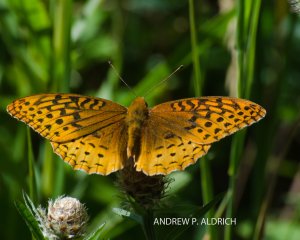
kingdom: Animalia
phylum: Arthropoda
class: Insecta
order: Lepidoptera
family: Nymphalidae
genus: Speyeria
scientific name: Speyeria
